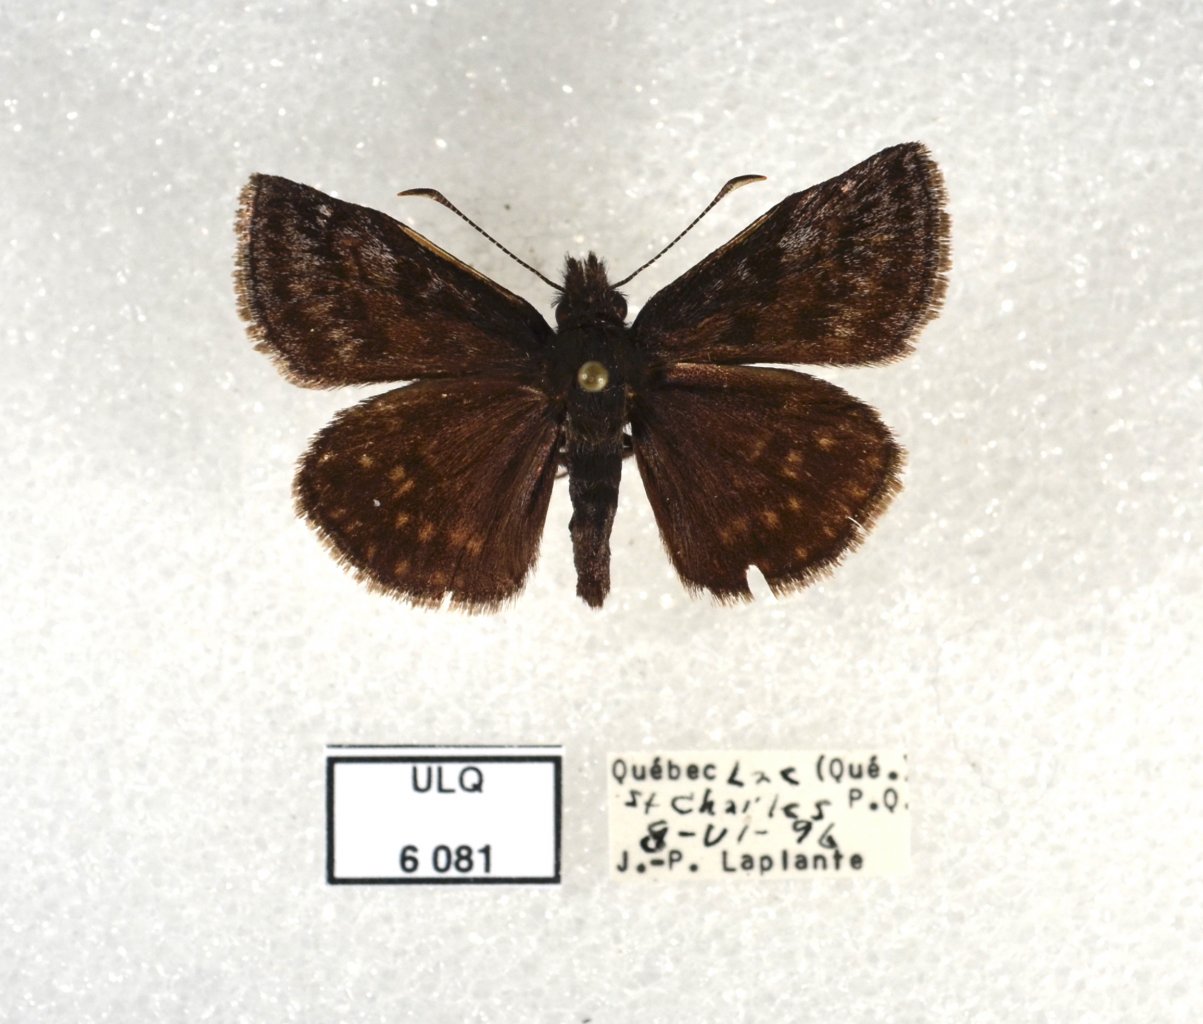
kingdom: Animalia
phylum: Arthropoda
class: Insecta
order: Lepidoptera
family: Hesperiidae
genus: Erynnis
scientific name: Erynnis icelus
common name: Dreamy Duskywing
